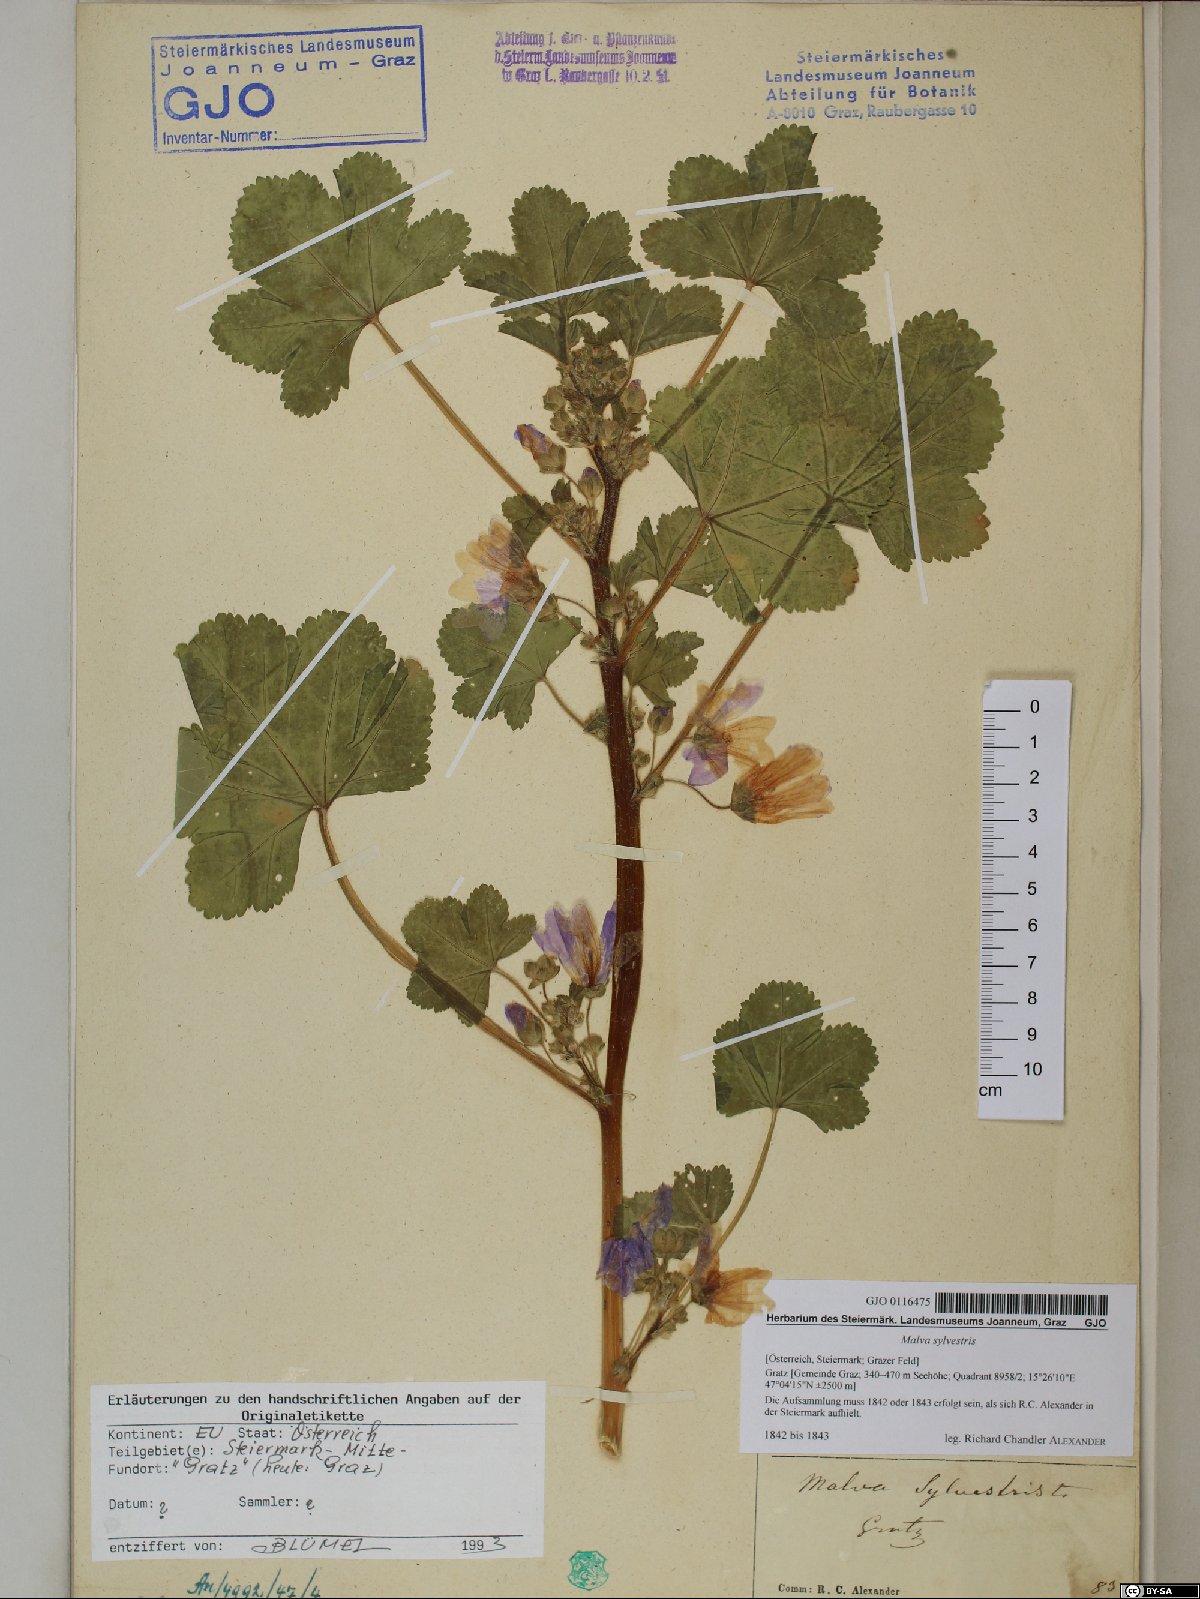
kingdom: Plantae
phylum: Tracheophyta
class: Magnoliopsida
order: Malvales
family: Malvaceae
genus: Malva
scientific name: Malva sylvestris
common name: Common mallow
